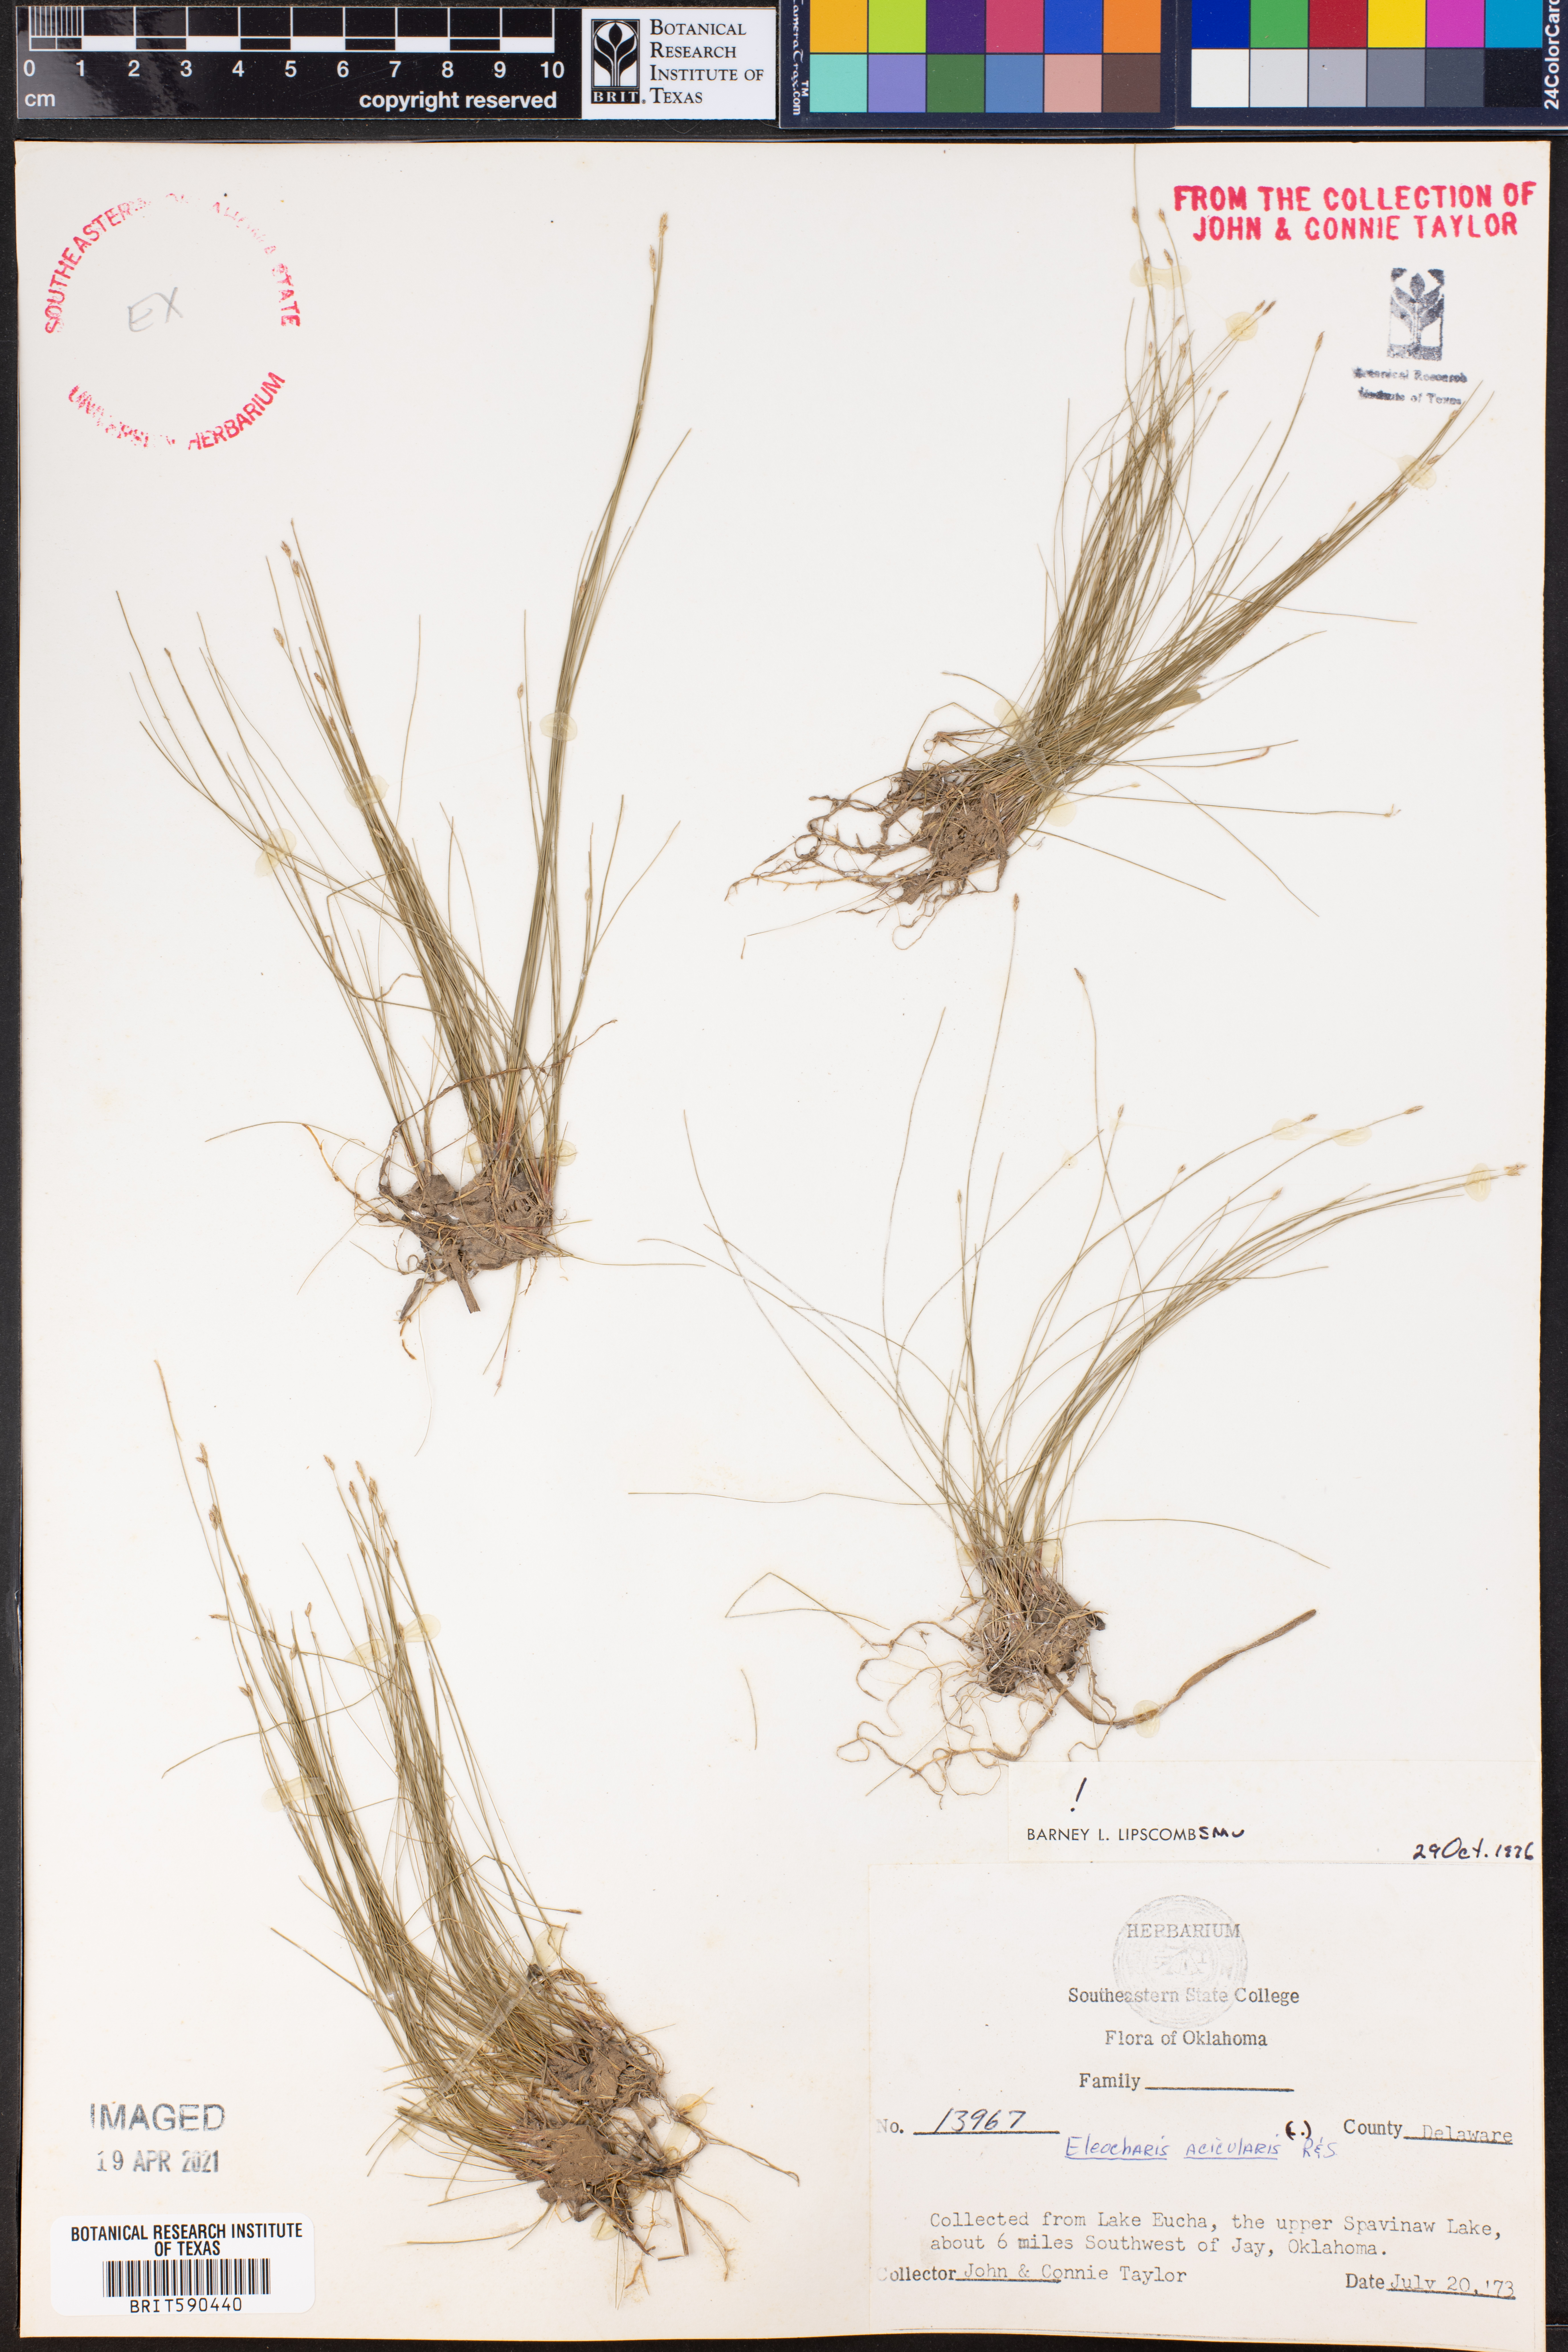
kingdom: Plantae
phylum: Tracheophyta
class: Liliopsida
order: Poales
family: Cyperaceae
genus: Eleocharis
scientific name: Eleocharis acicularis
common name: Needle spike-rush
